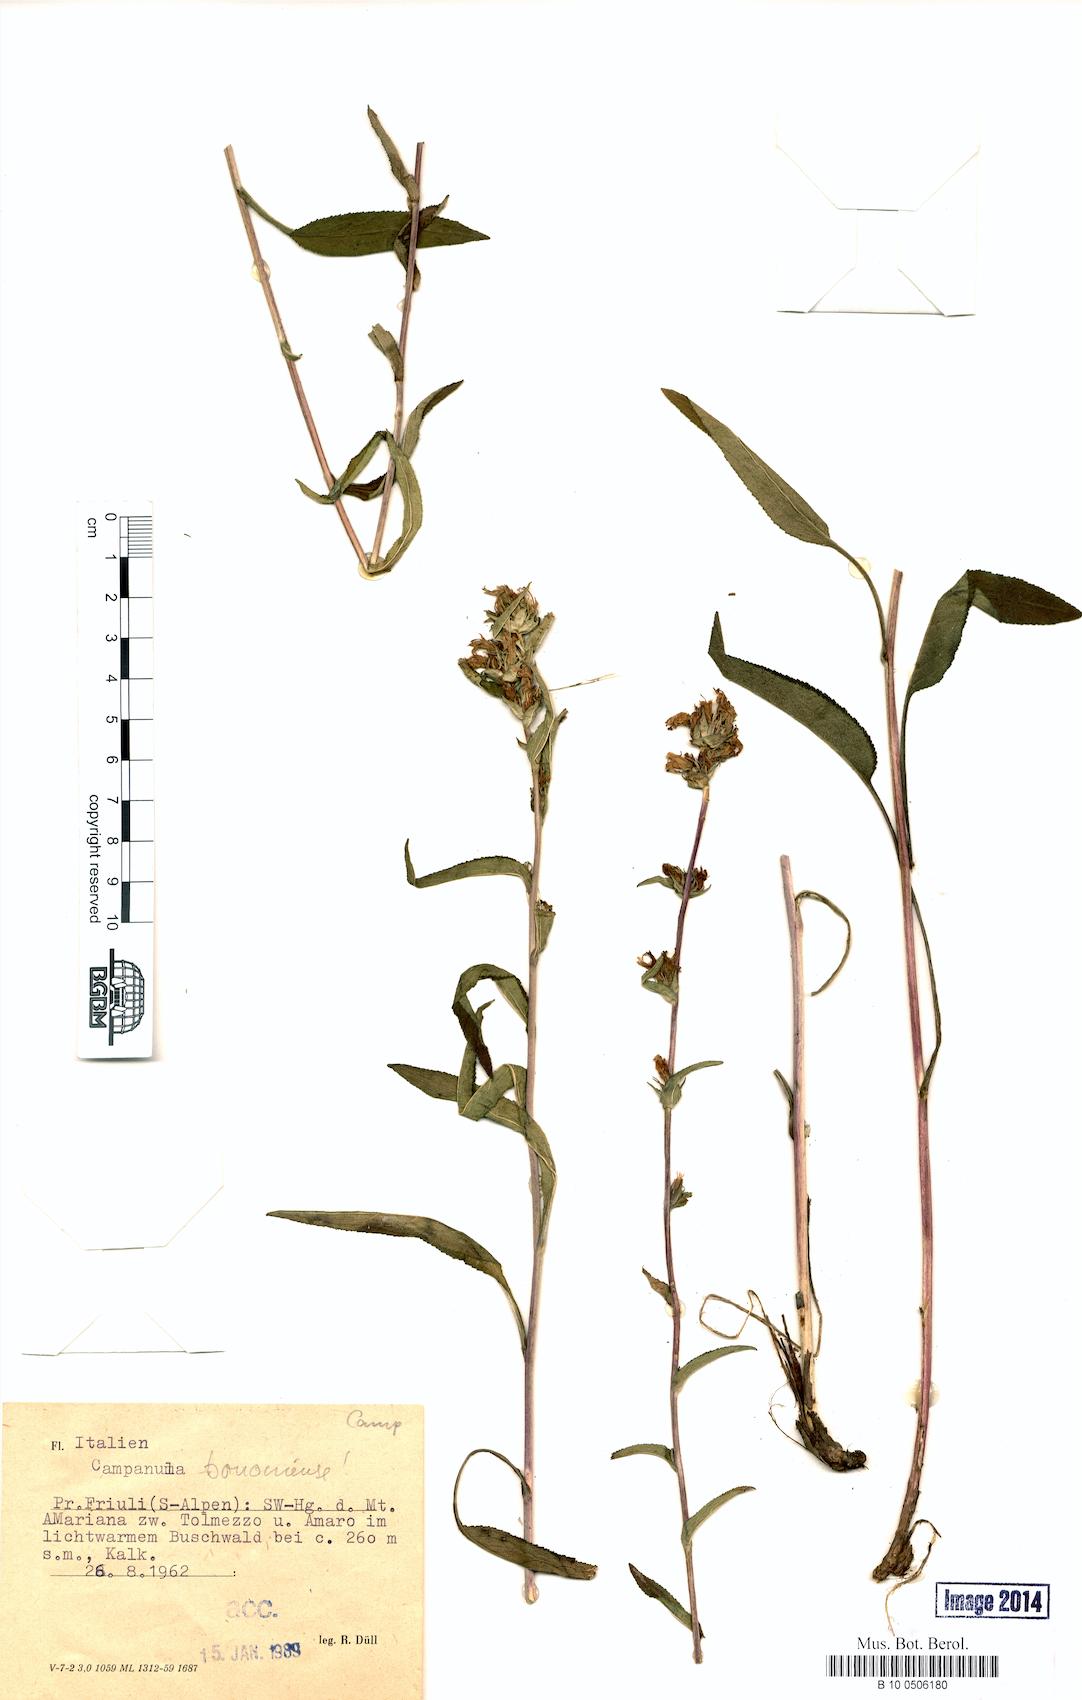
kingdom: Plantae
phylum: Tracheophyta
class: Magnoliopsida
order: Asterales
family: Campanulaceae
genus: Campanula
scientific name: Campanula bononiensis
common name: Pale bellflower
